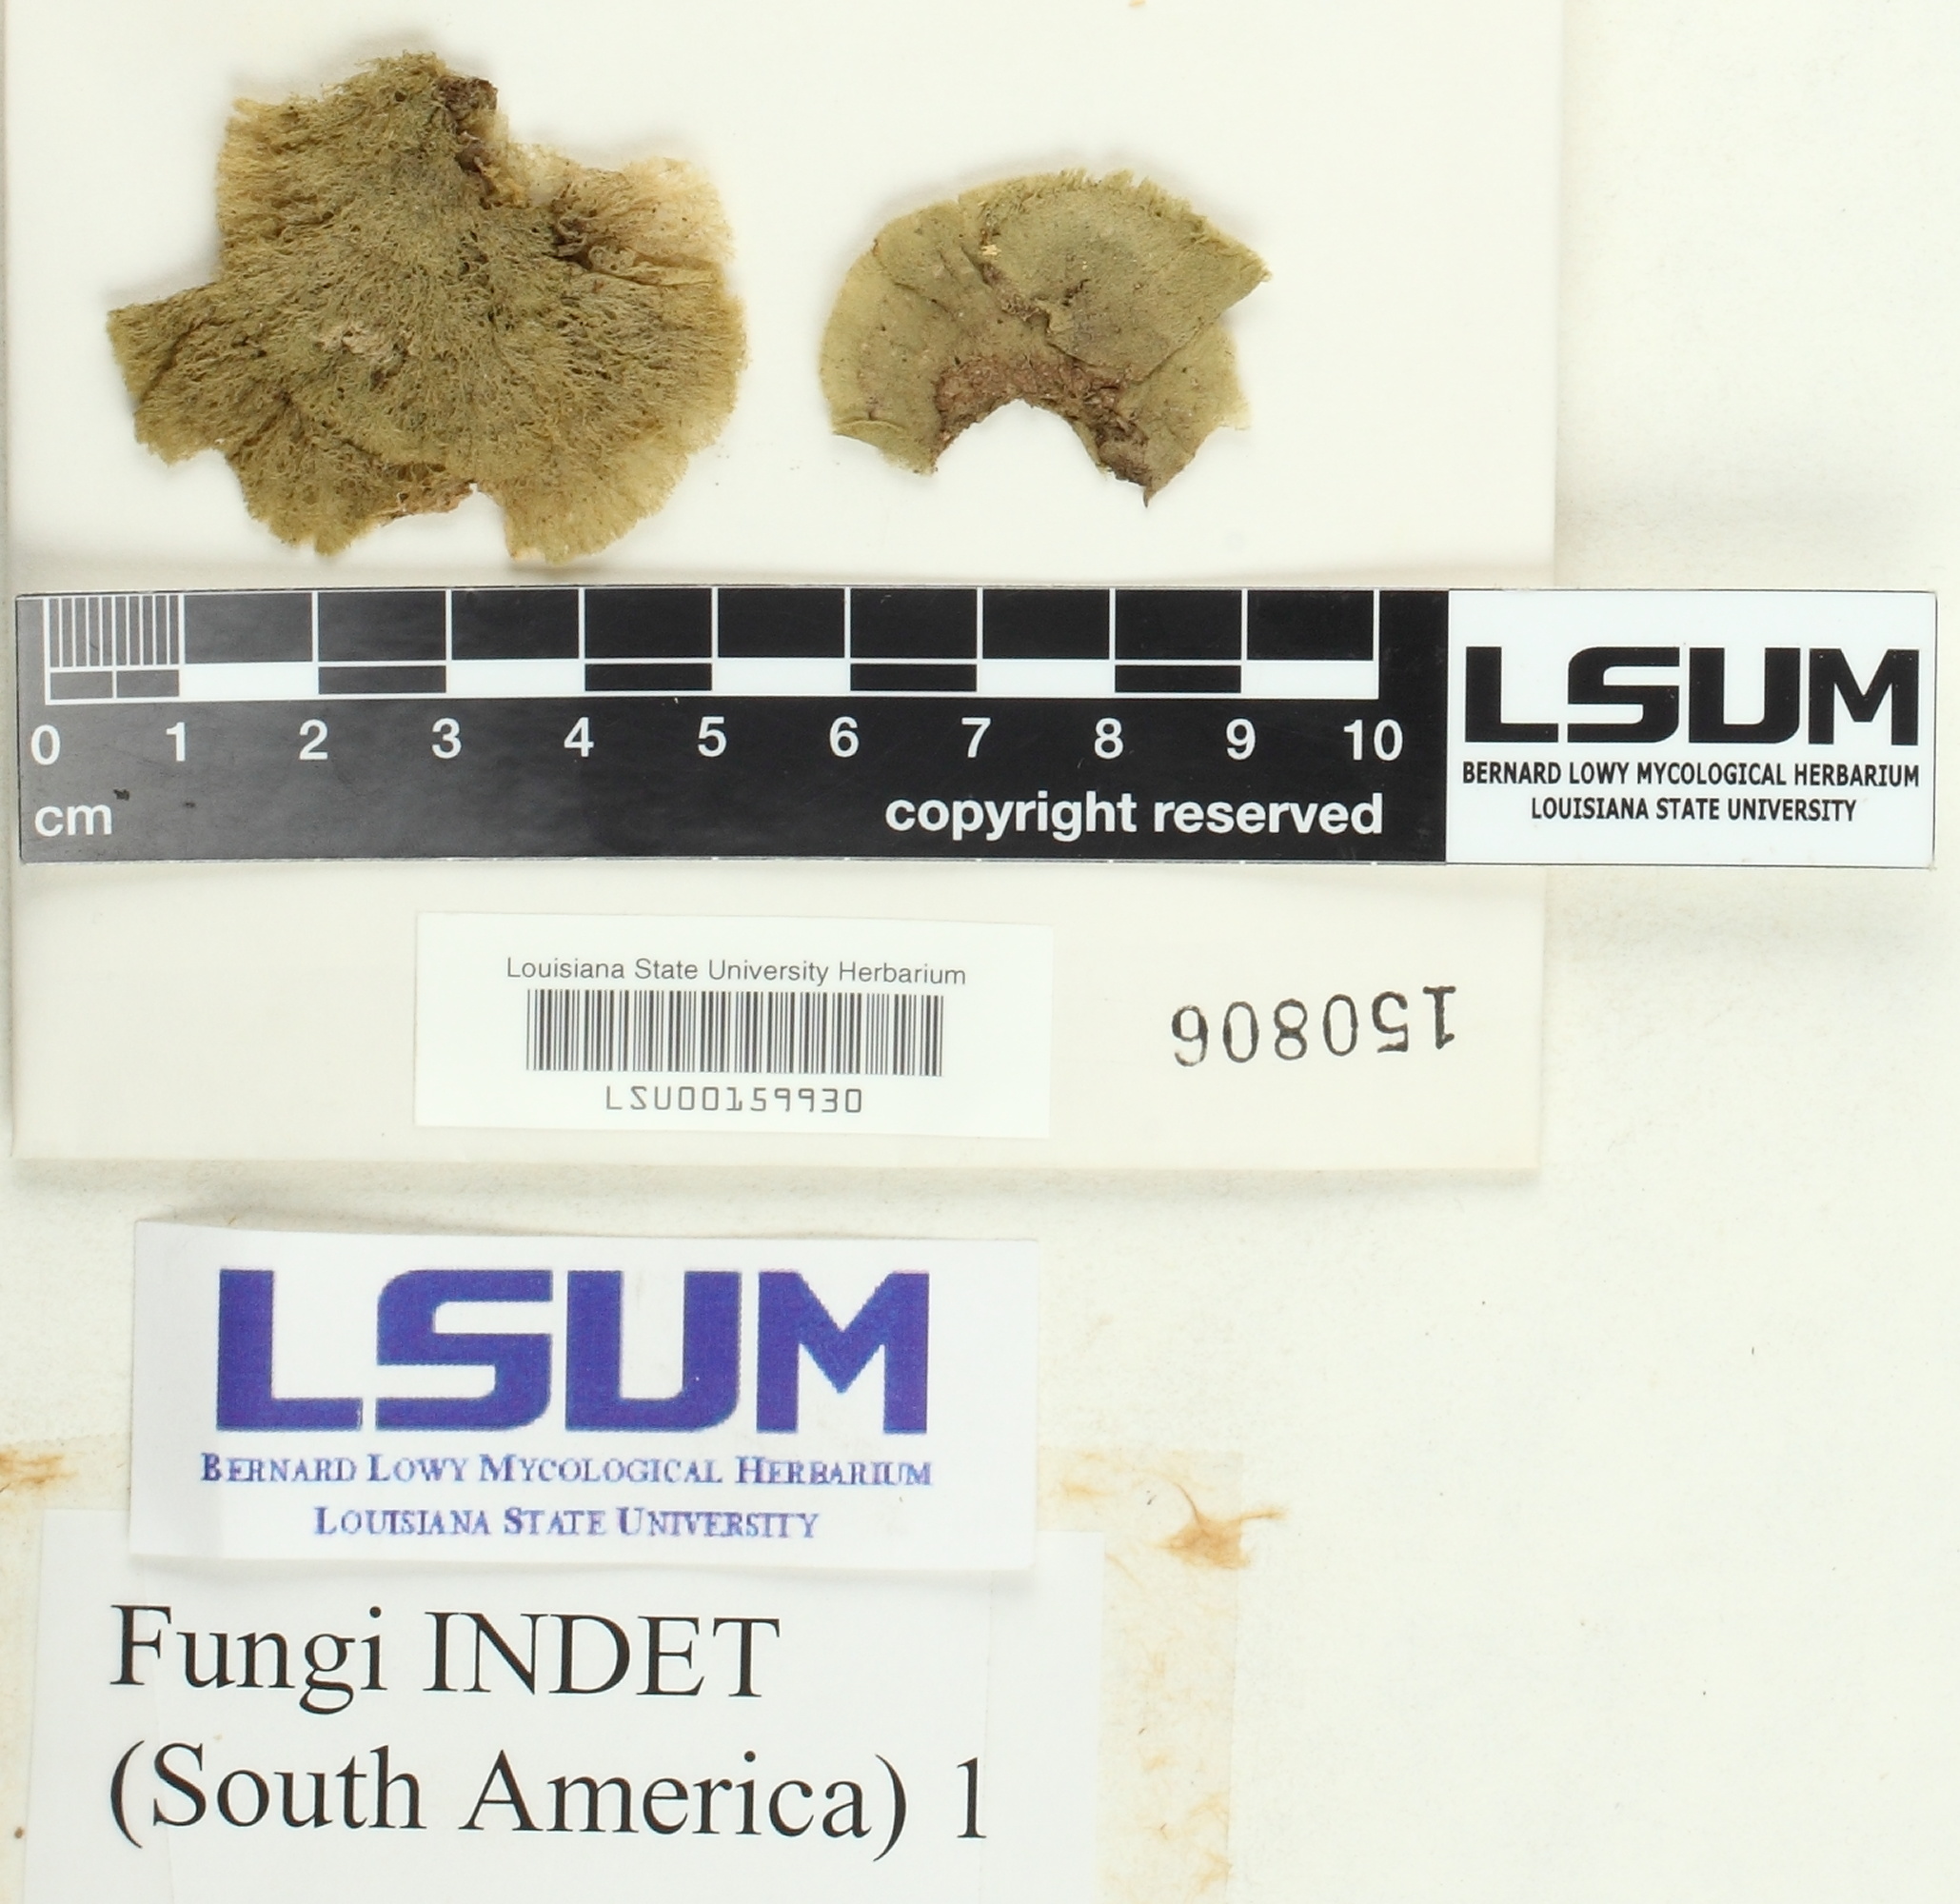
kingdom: Fungi
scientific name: Fungi
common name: Fungi
